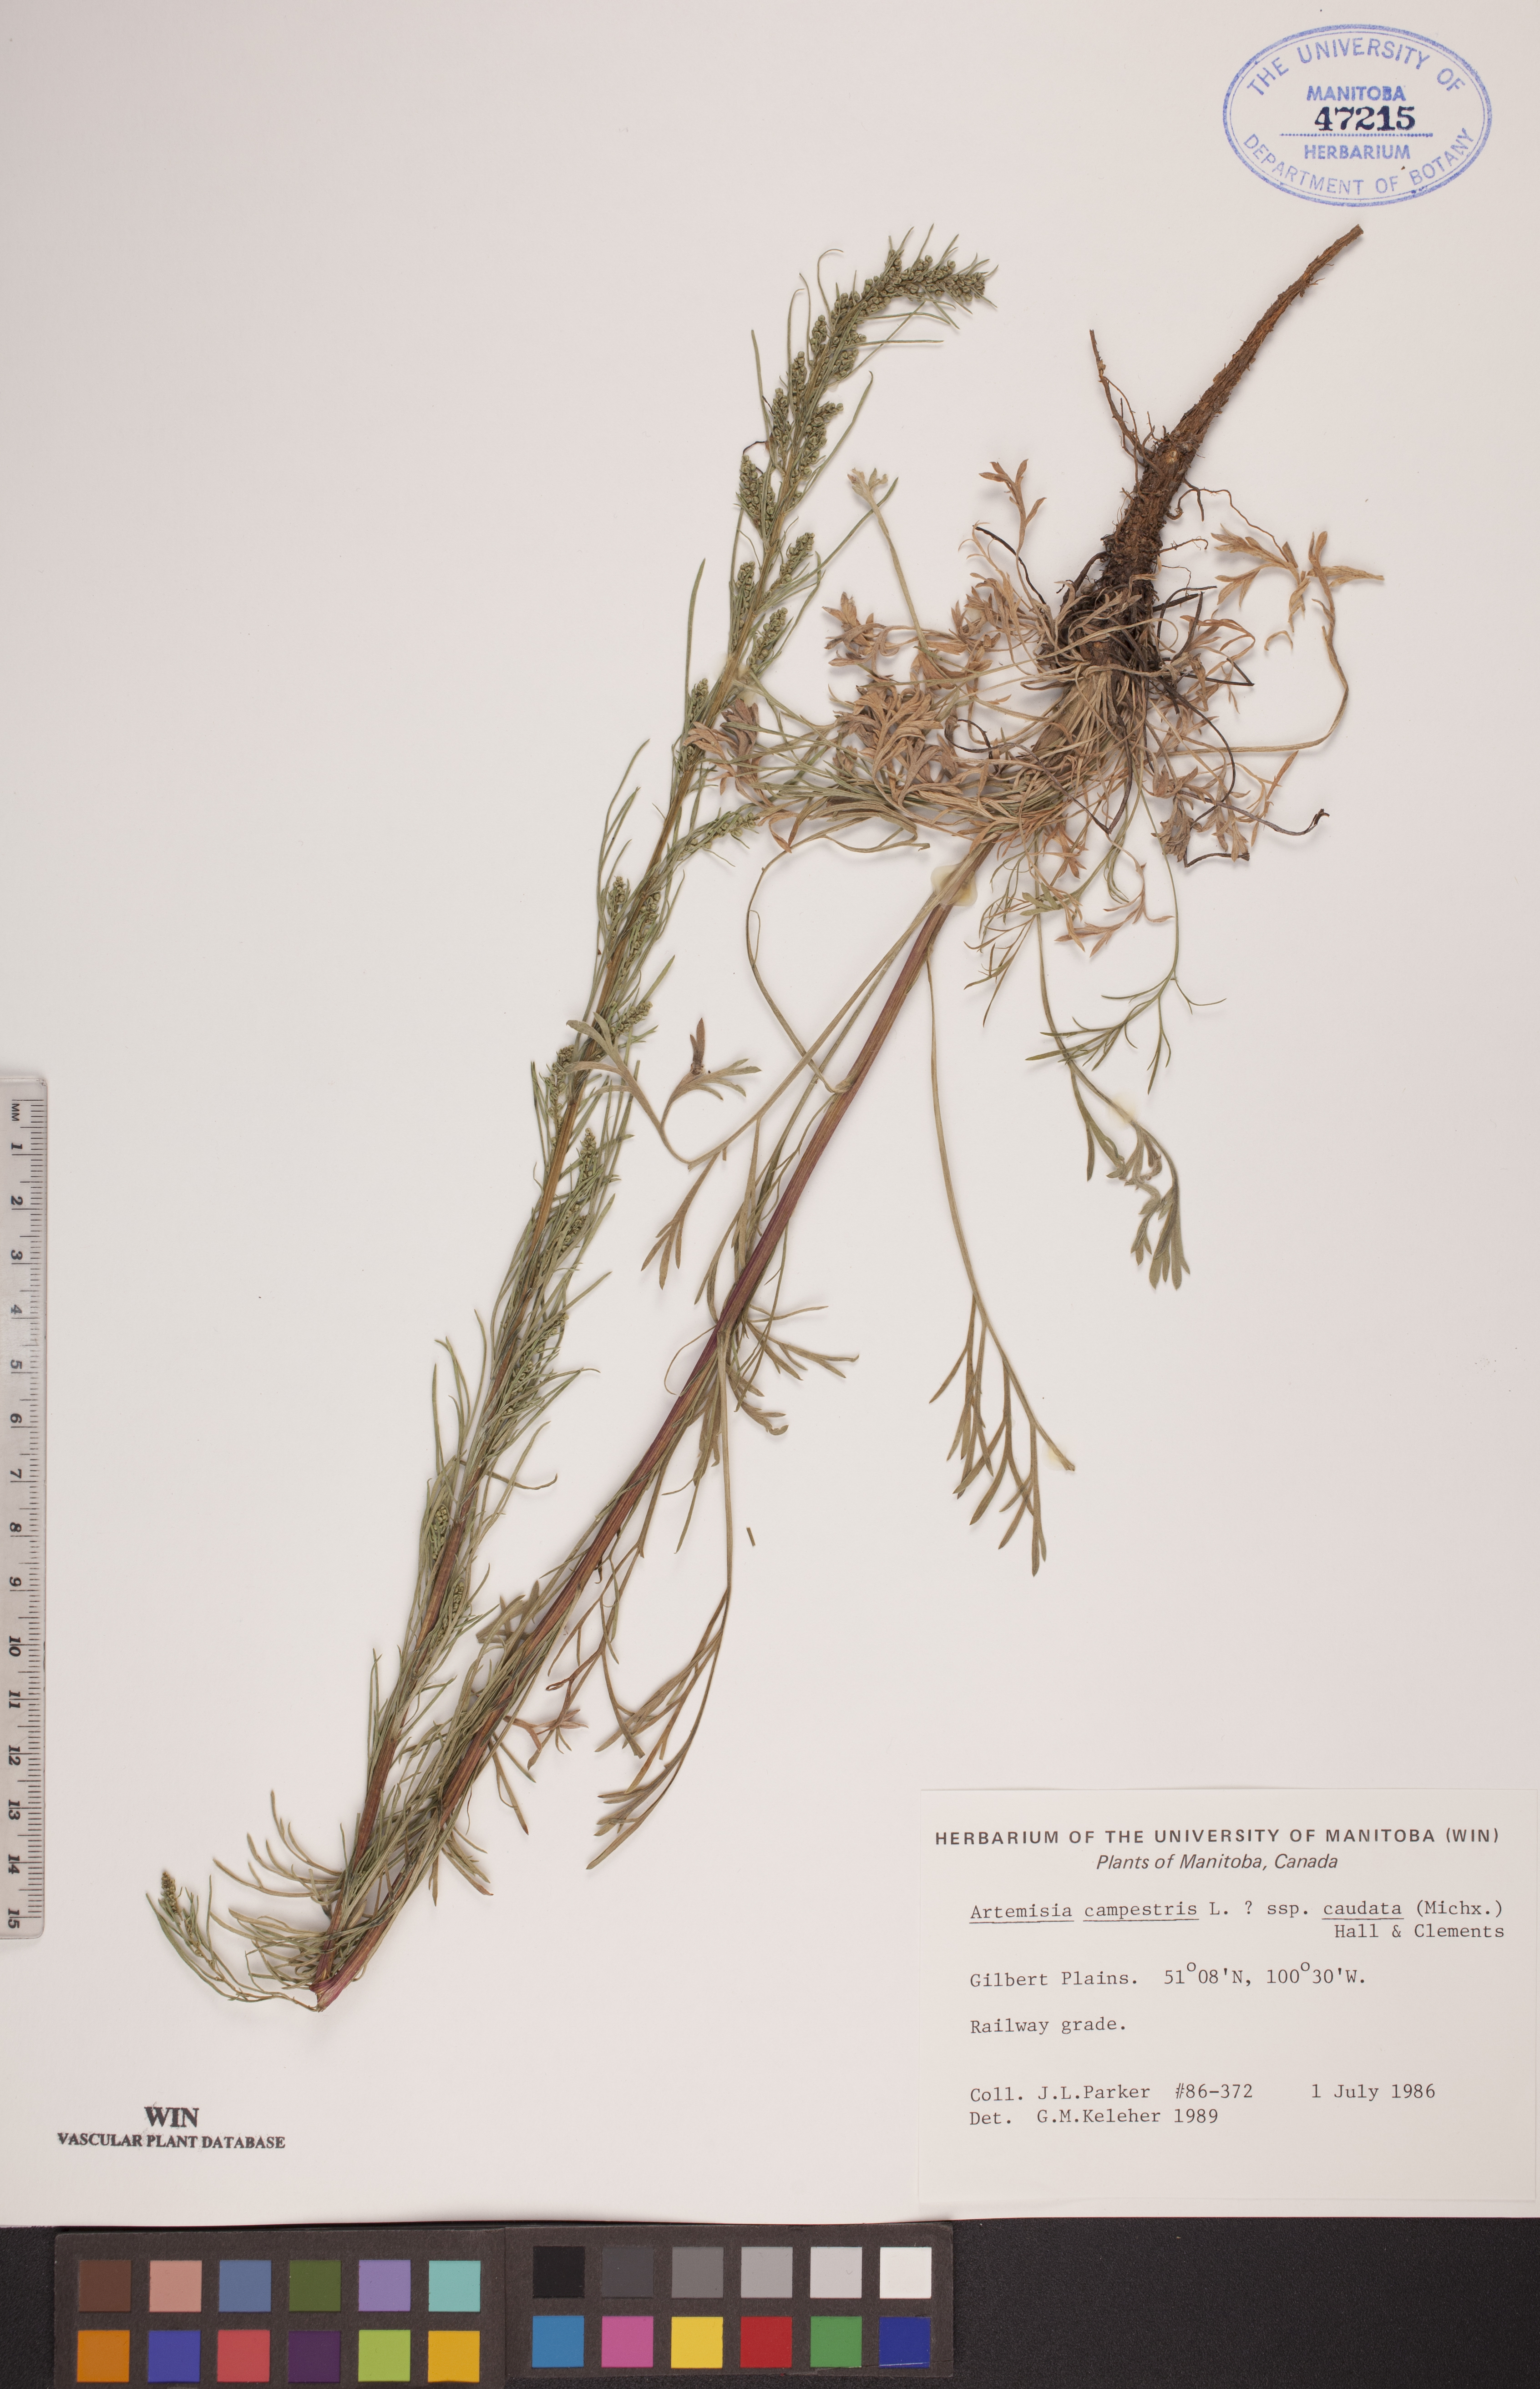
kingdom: Plantae
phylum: Tracheophyta
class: Magnoliopsida
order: Asterales
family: Asteraceae
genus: Artemisia
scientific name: Artemisia campestris
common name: Field wormwood
